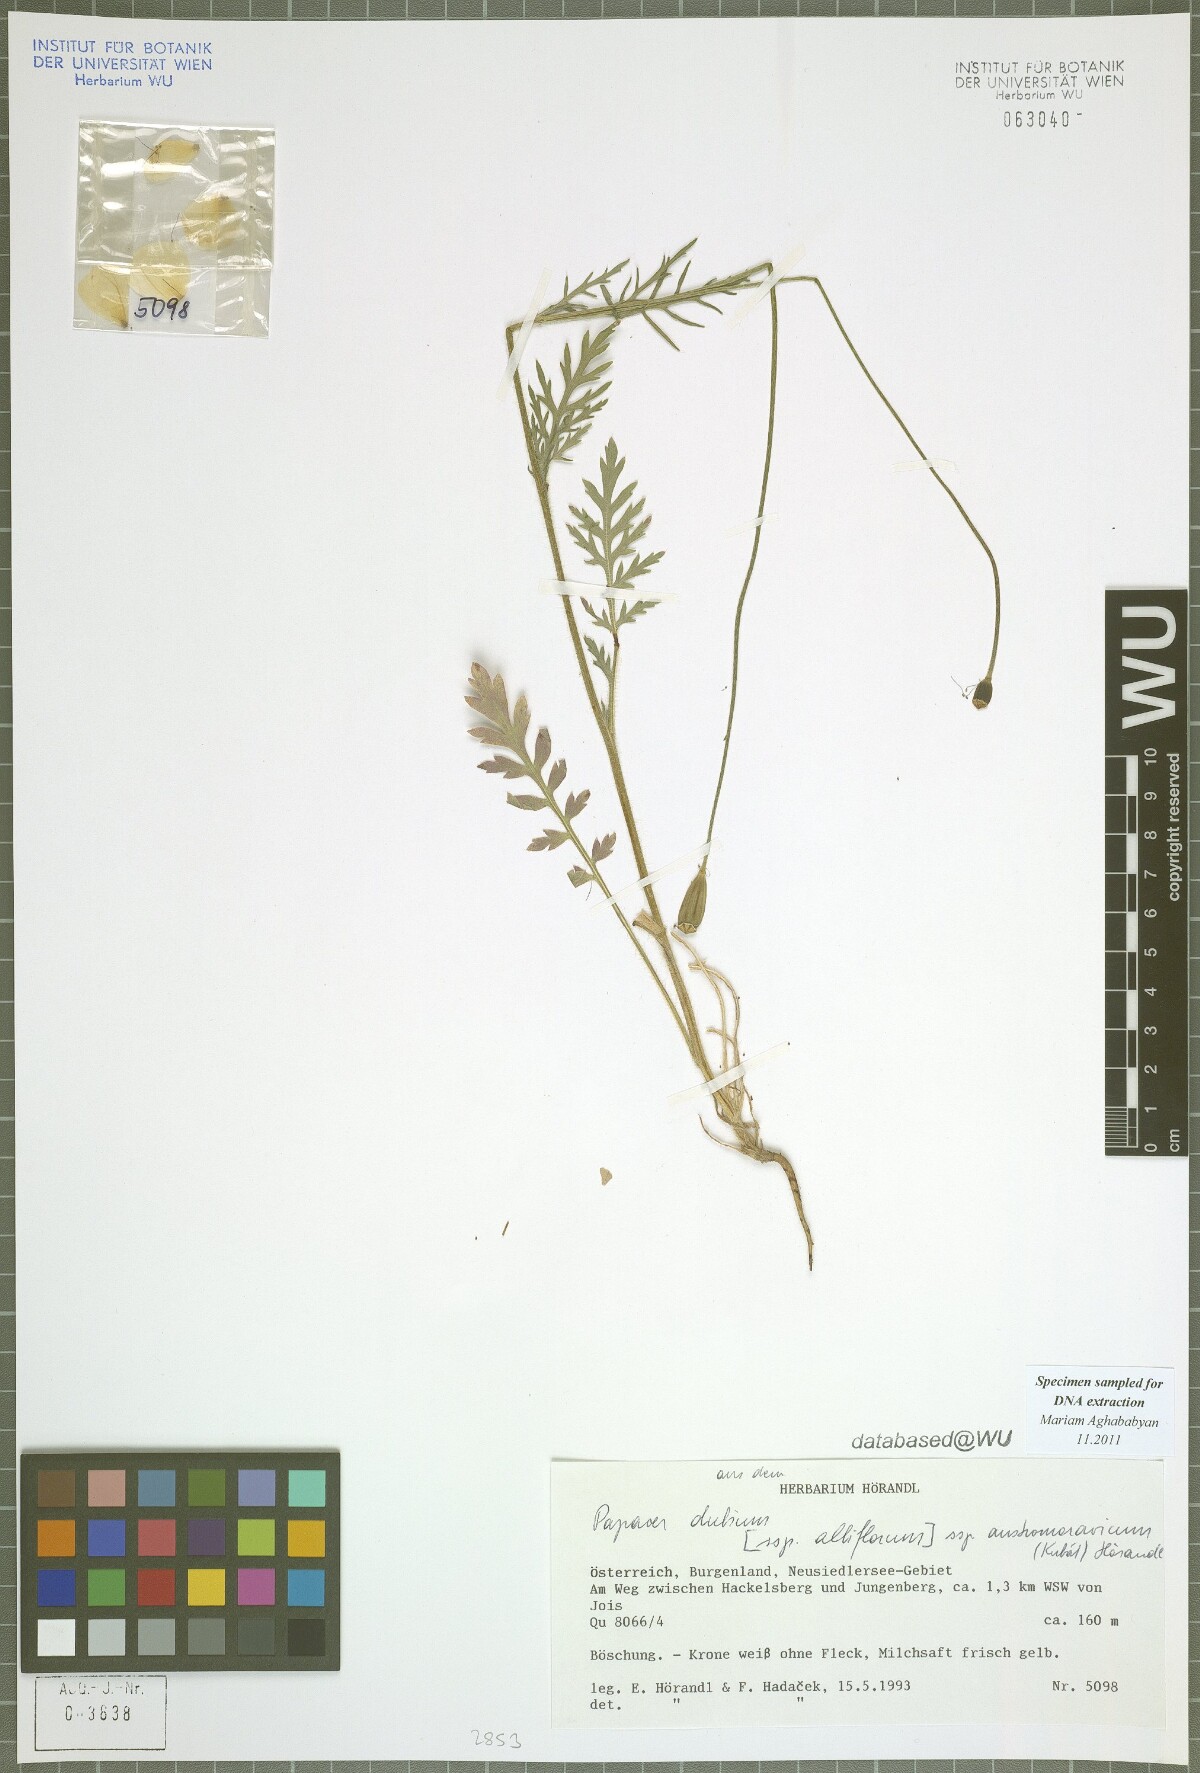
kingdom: Plantae
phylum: Tracheophyta
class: Magnoliopsida
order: Ranunculales
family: Papaveraceae
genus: Papaver
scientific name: Papaver dubium
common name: Long-headed poppy
